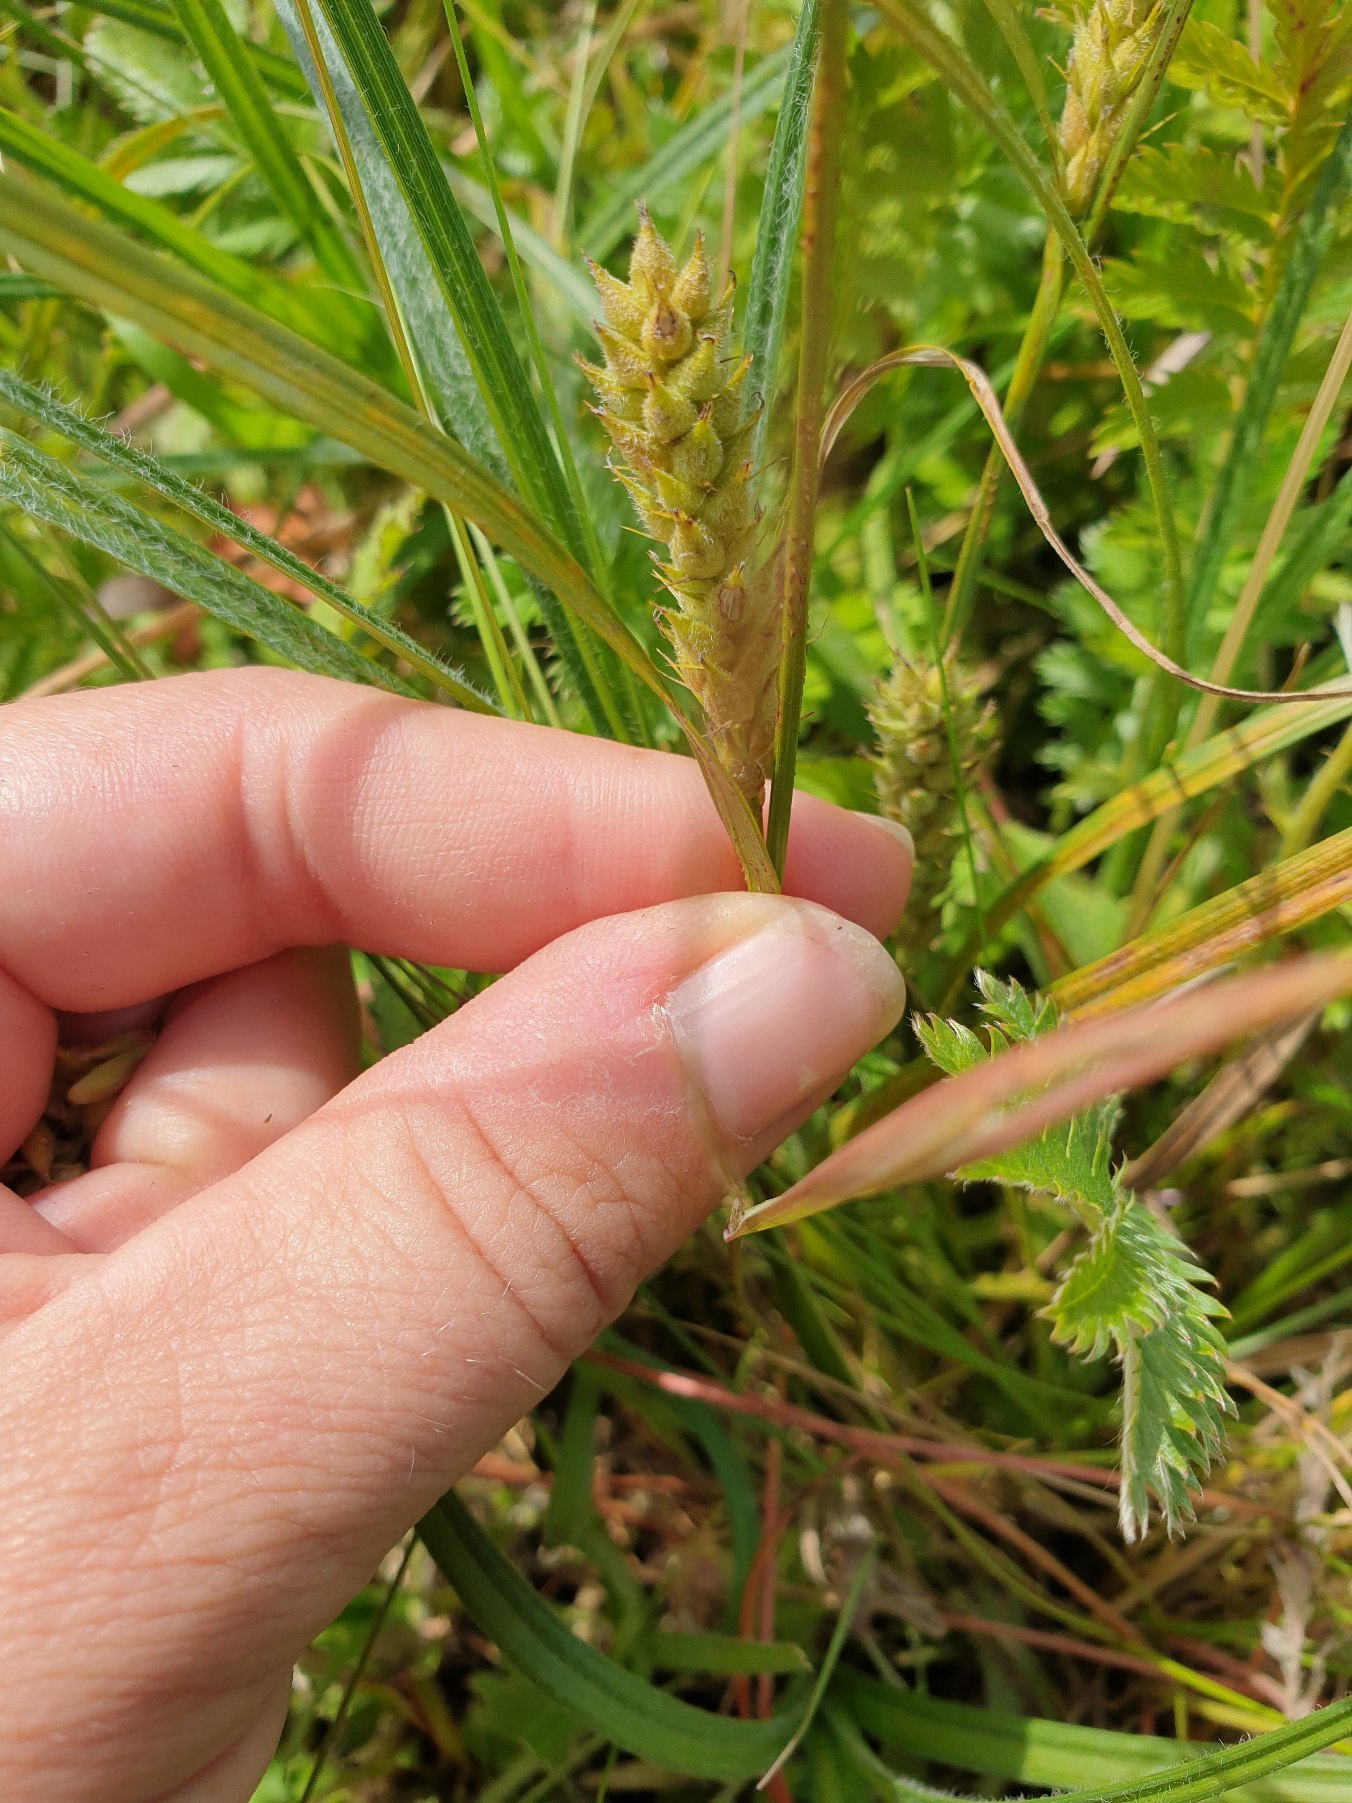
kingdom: Plantae
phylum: Tracheophyta
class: Liliopsida
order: Poales
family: Cyperaceae
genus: Carex
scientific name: Carex hirta
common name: Håret star
